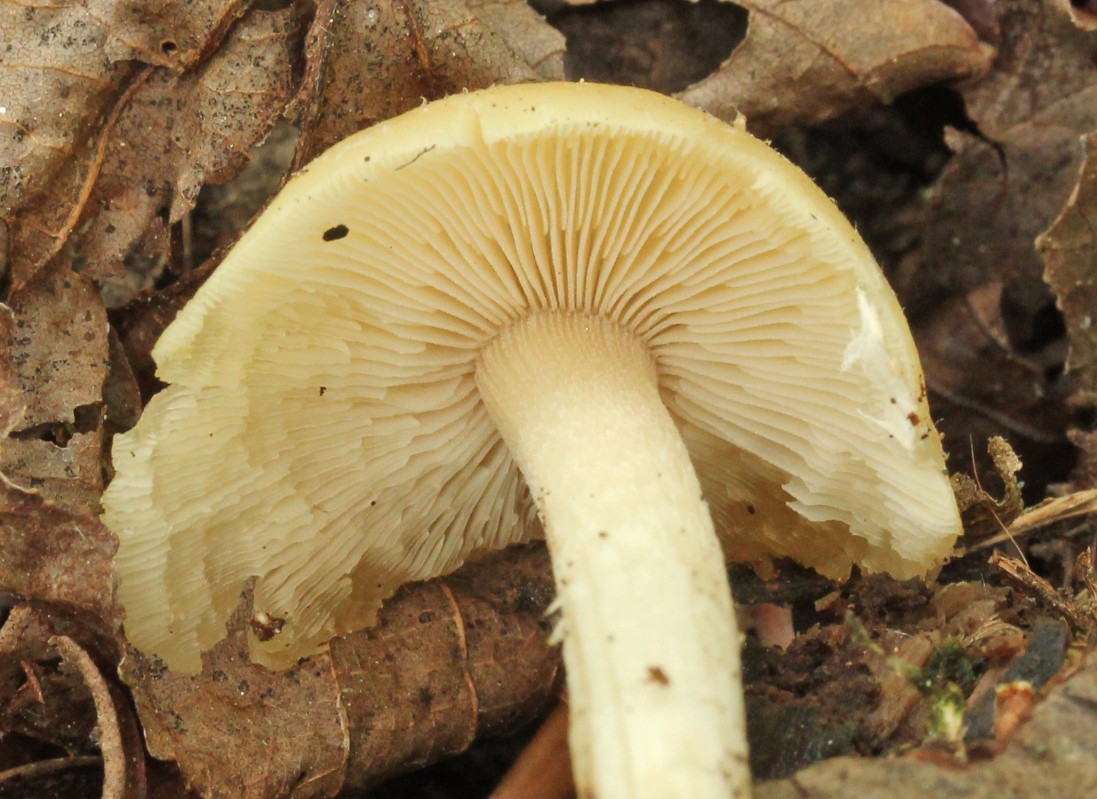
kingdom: Fungi
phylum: Basidiomycota
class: Agaricomycetes
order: Agaricales
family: Psathyrellaceae
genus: Candolleomyces
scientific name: Candolleomyces candolleanus
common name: Candolles mørkhat
